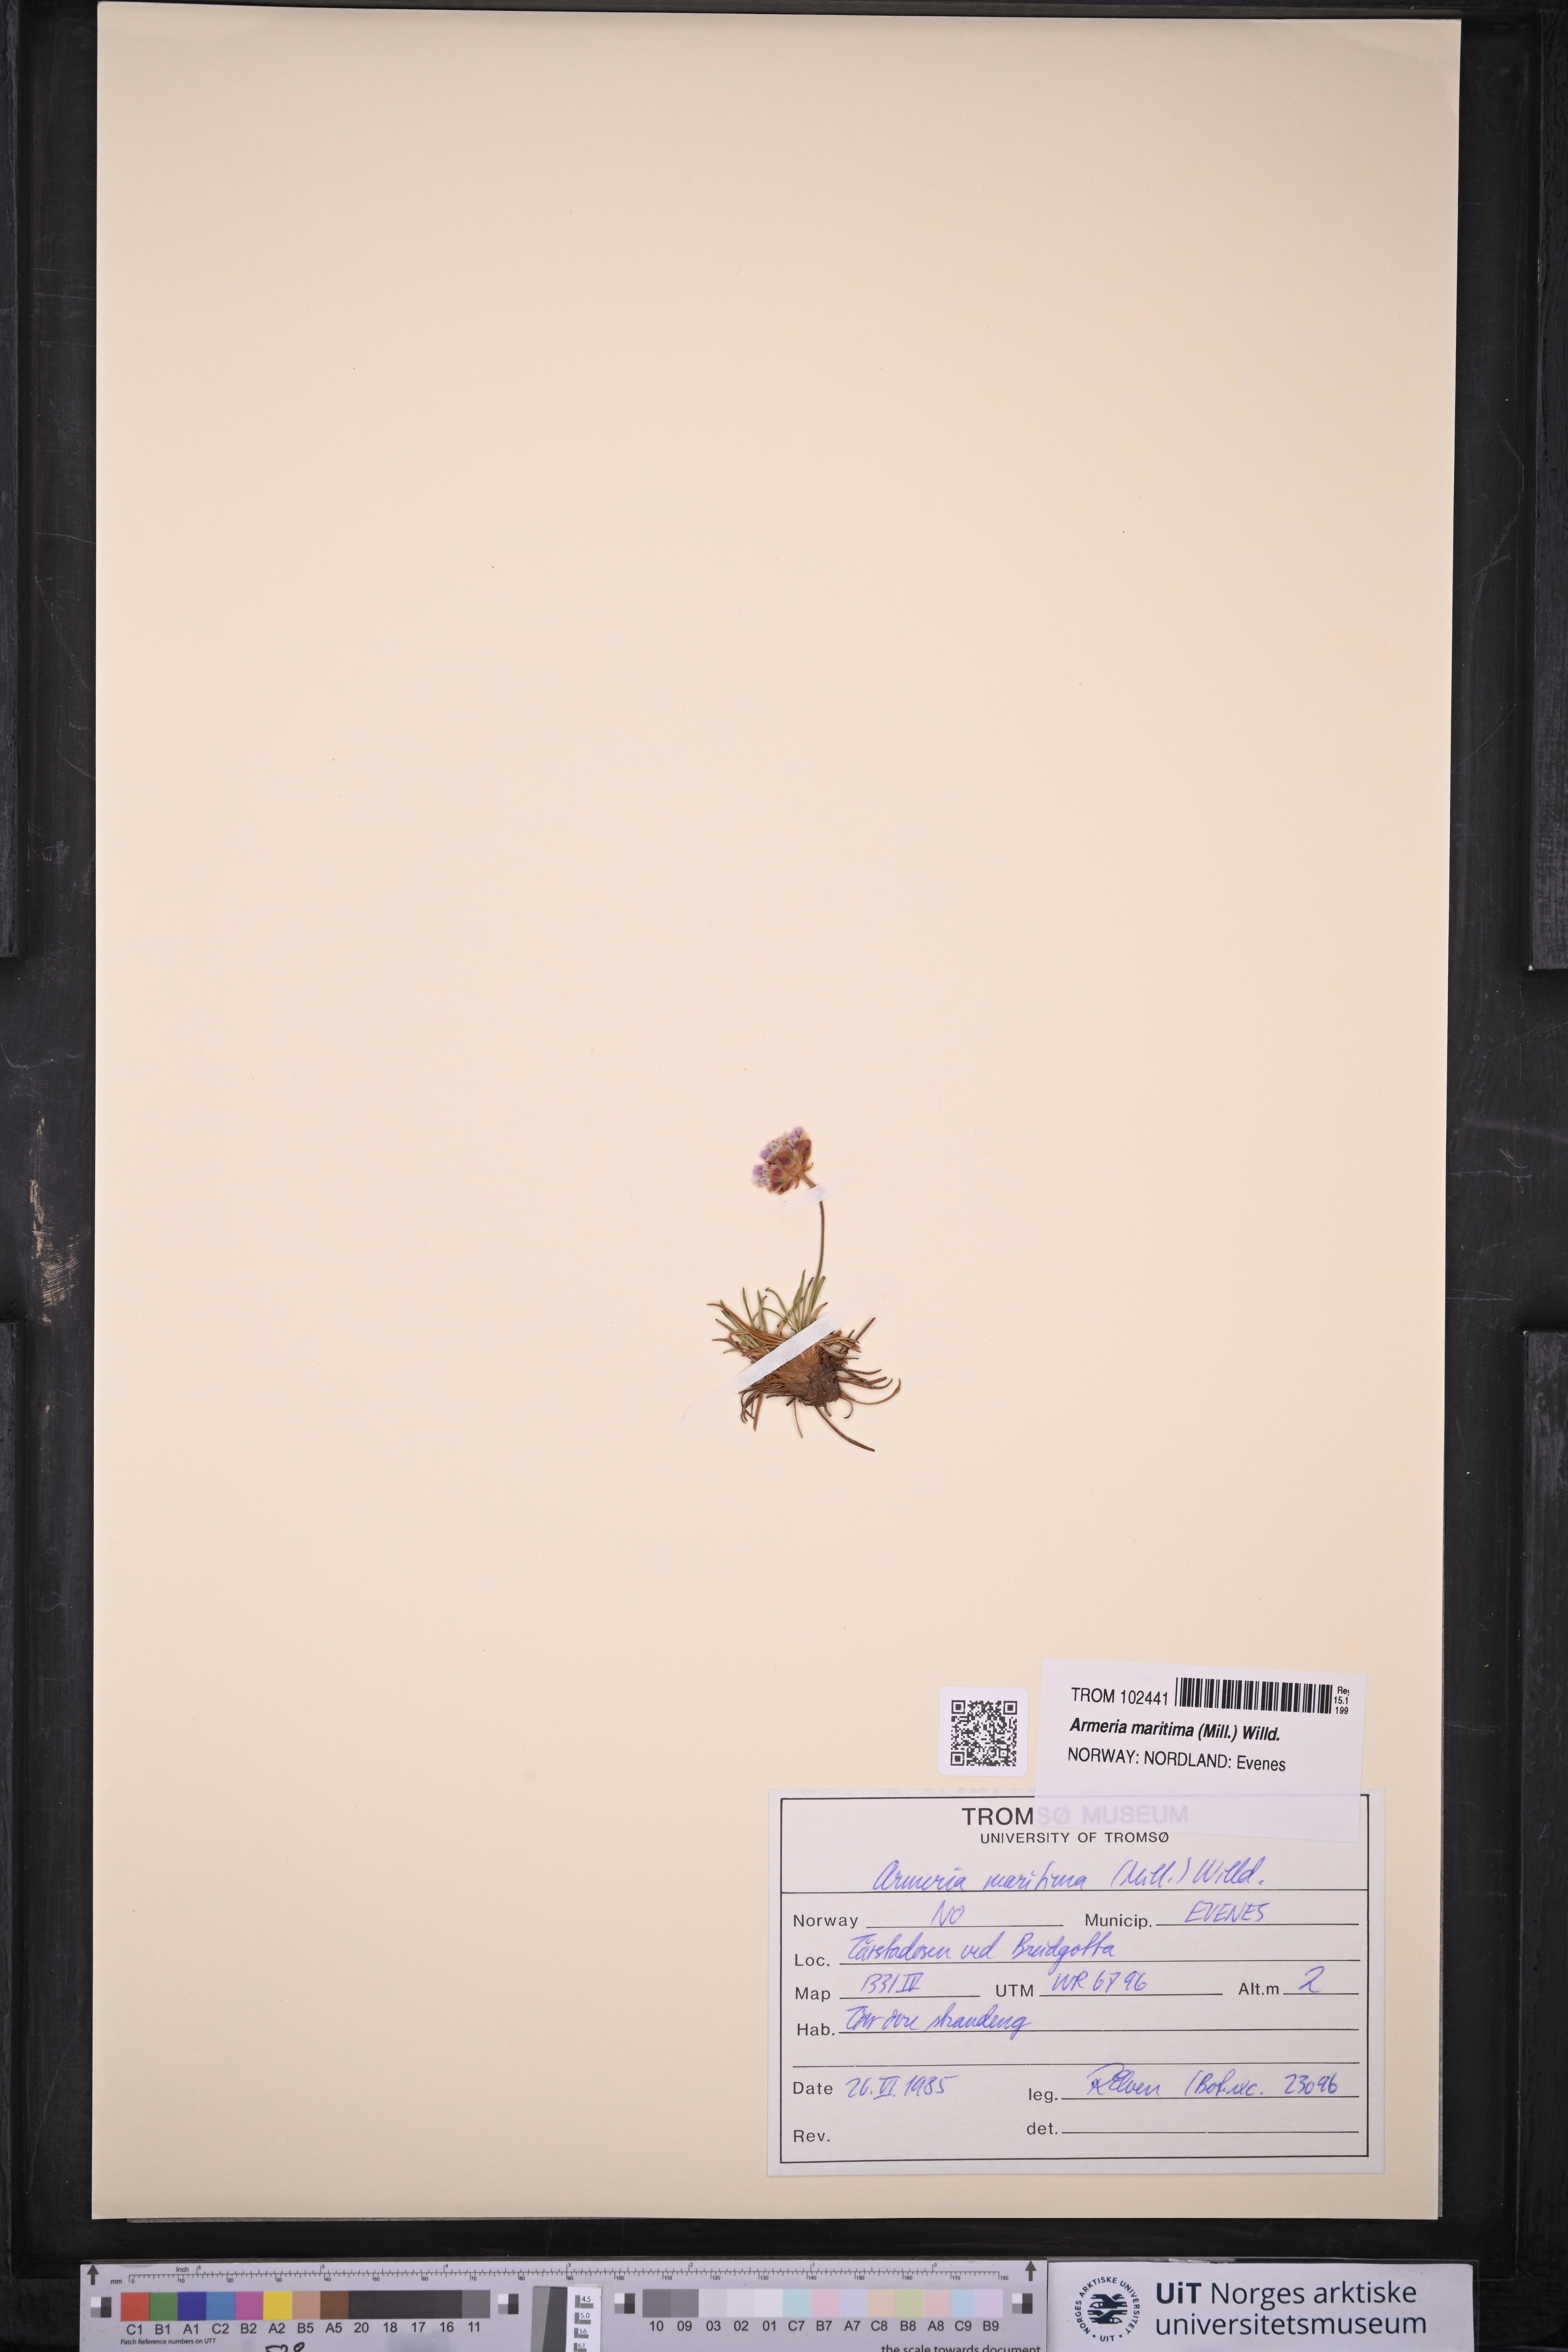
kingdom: Plantae
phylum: Tracheophyta
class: Magnoliopsida
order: Caryophyllales
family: Plumbaginaceae
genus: Armeria
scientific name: Armeria maritima
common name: Thrift
